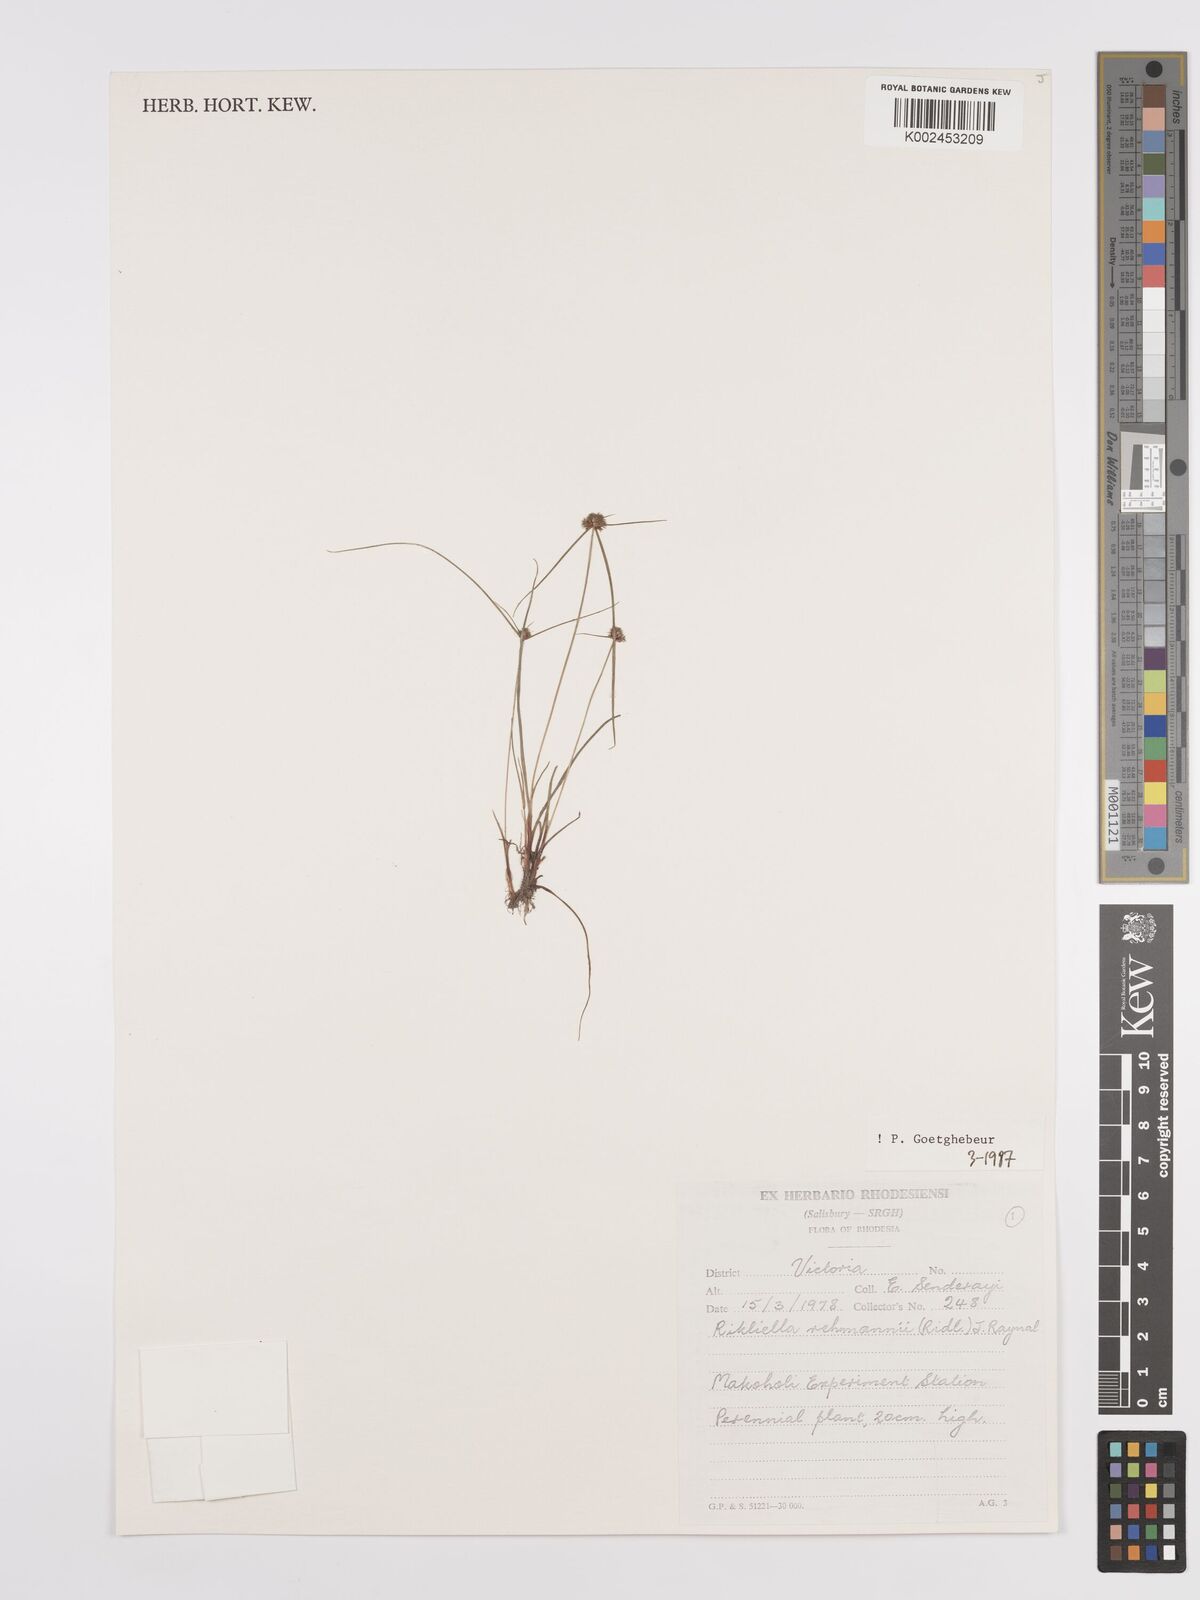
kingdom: Plantae
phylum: Tracheophyta
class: Liliopsida
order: Poales
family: Cyperaceae
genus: Cyperus
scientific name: Cyperus sanguinolentus
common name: Purpleglume flatsedge
